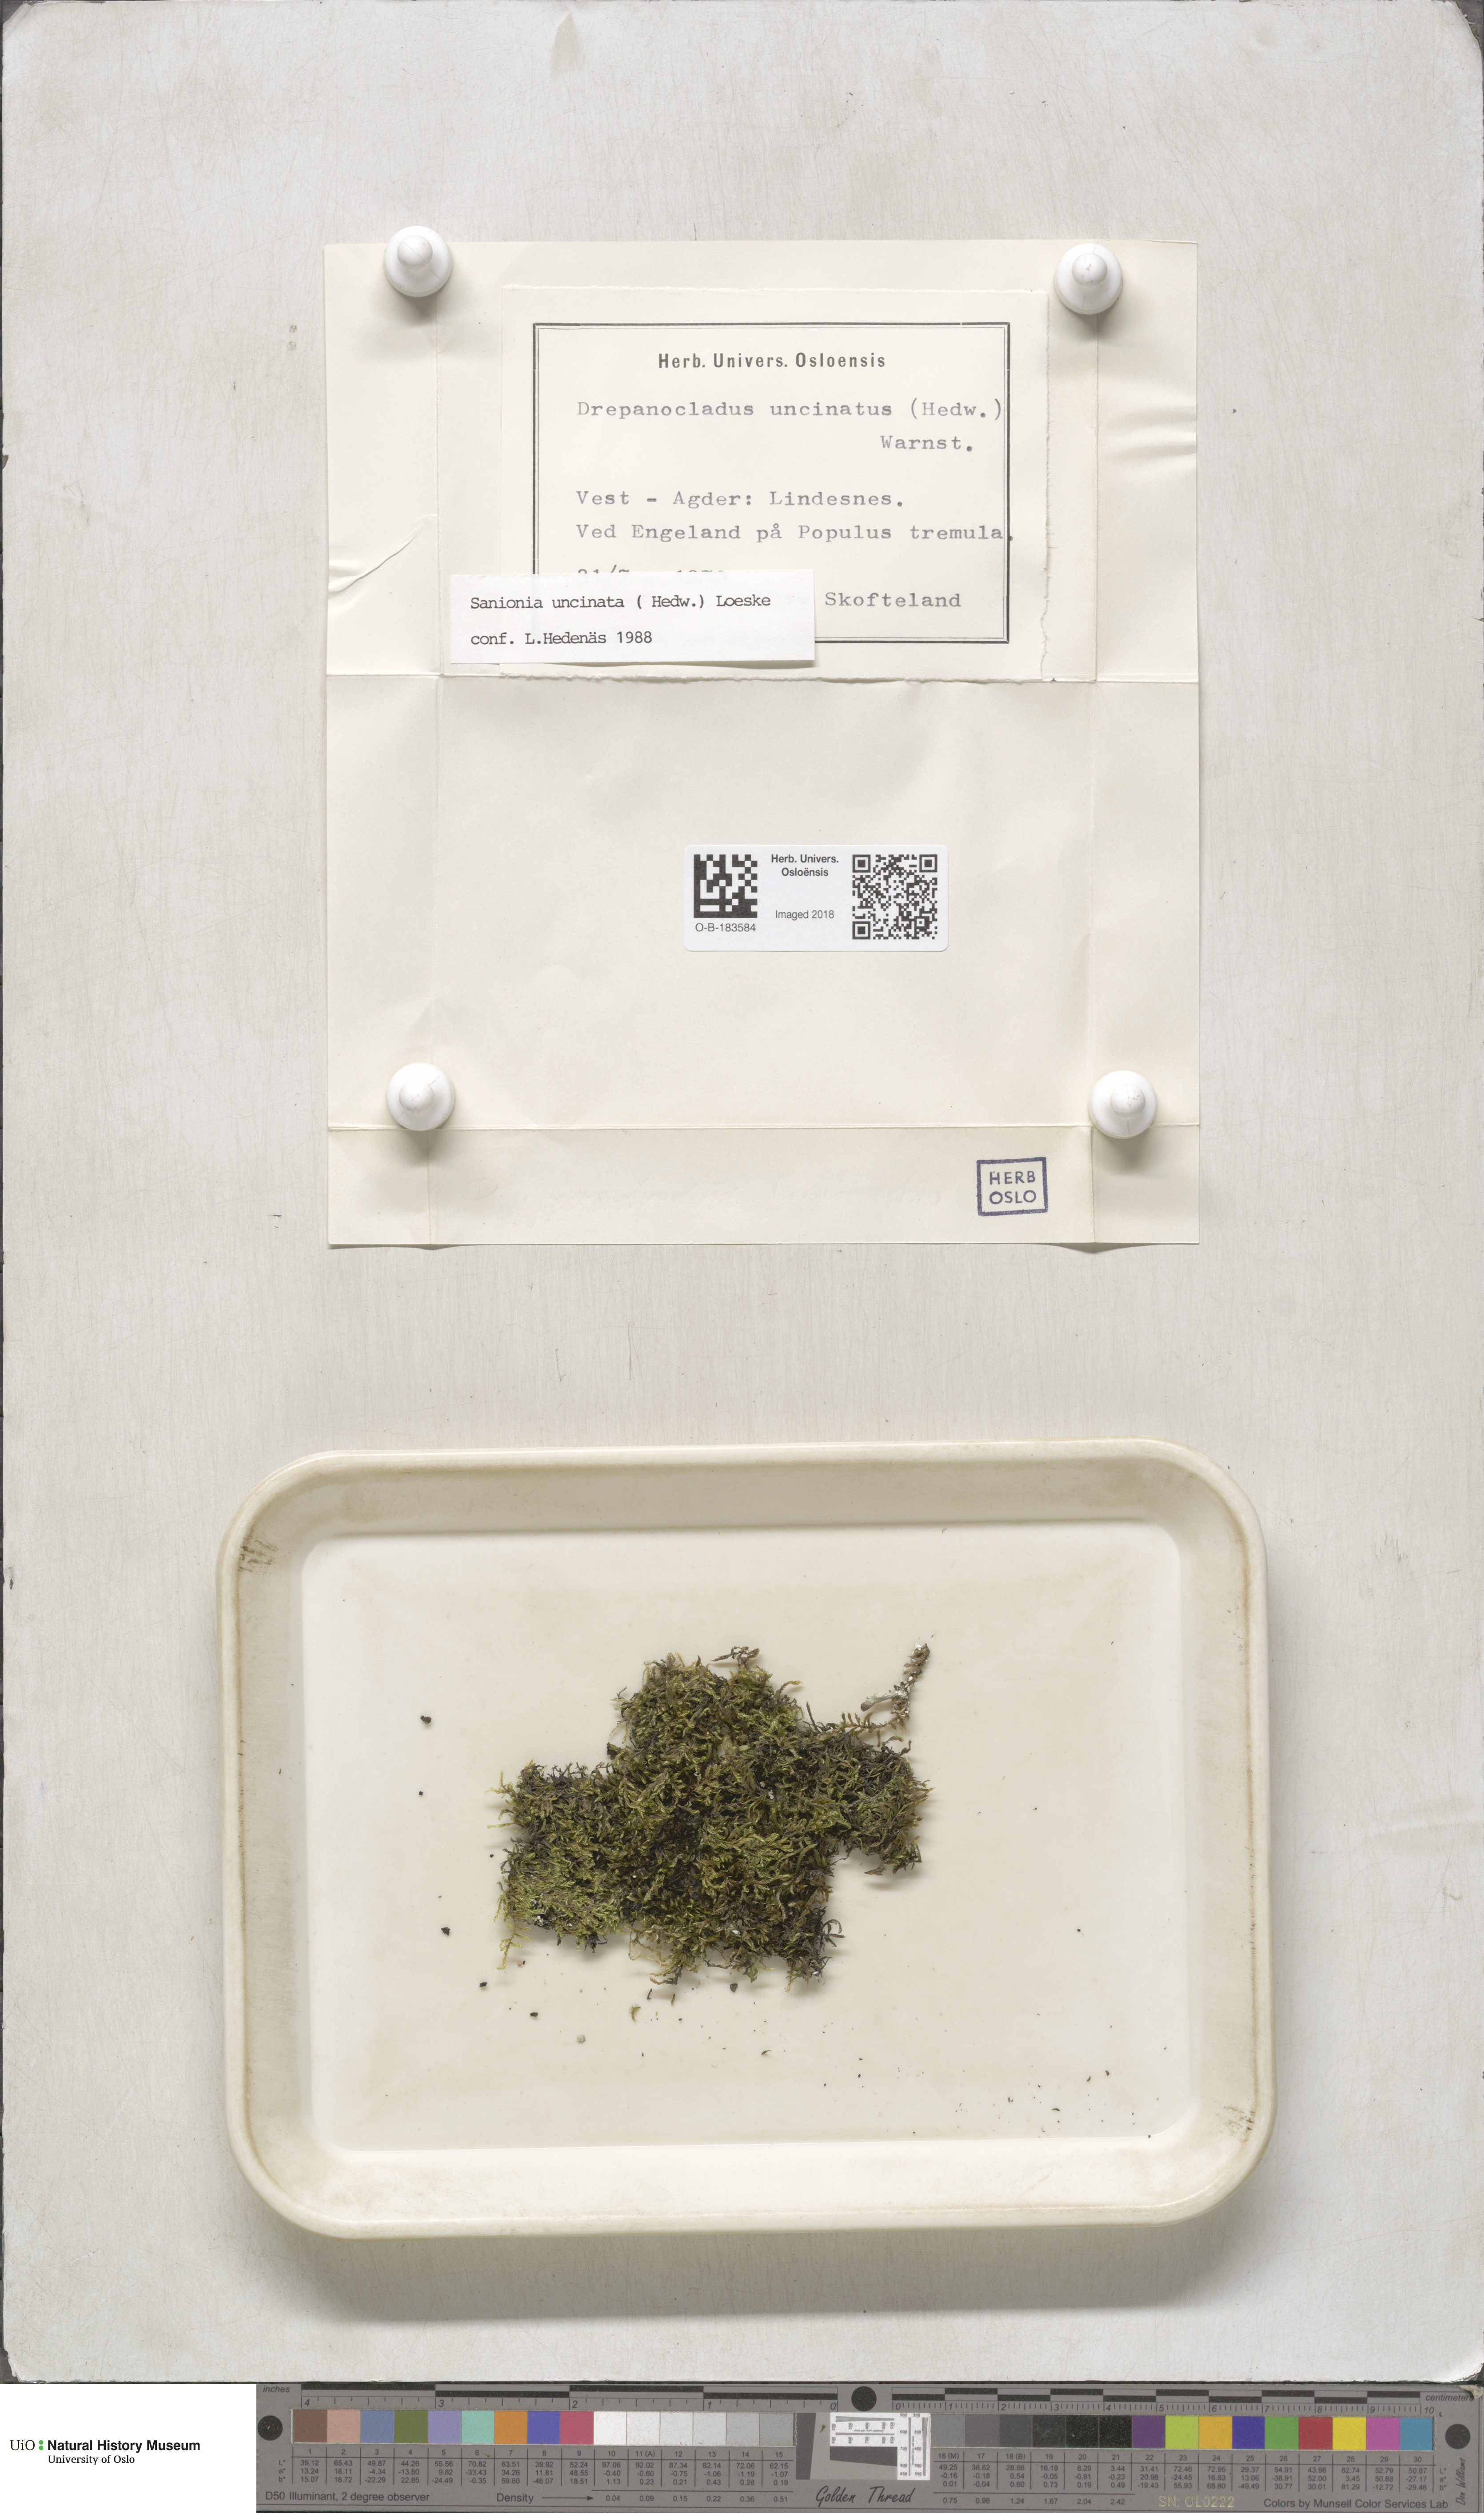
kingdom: Plantae
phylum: Bryophyta
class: Bryopsida
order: Hypnales
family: Scorpidiaceae
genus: Sanionia
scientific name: Sanionia uncinata
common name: Sickle moss
